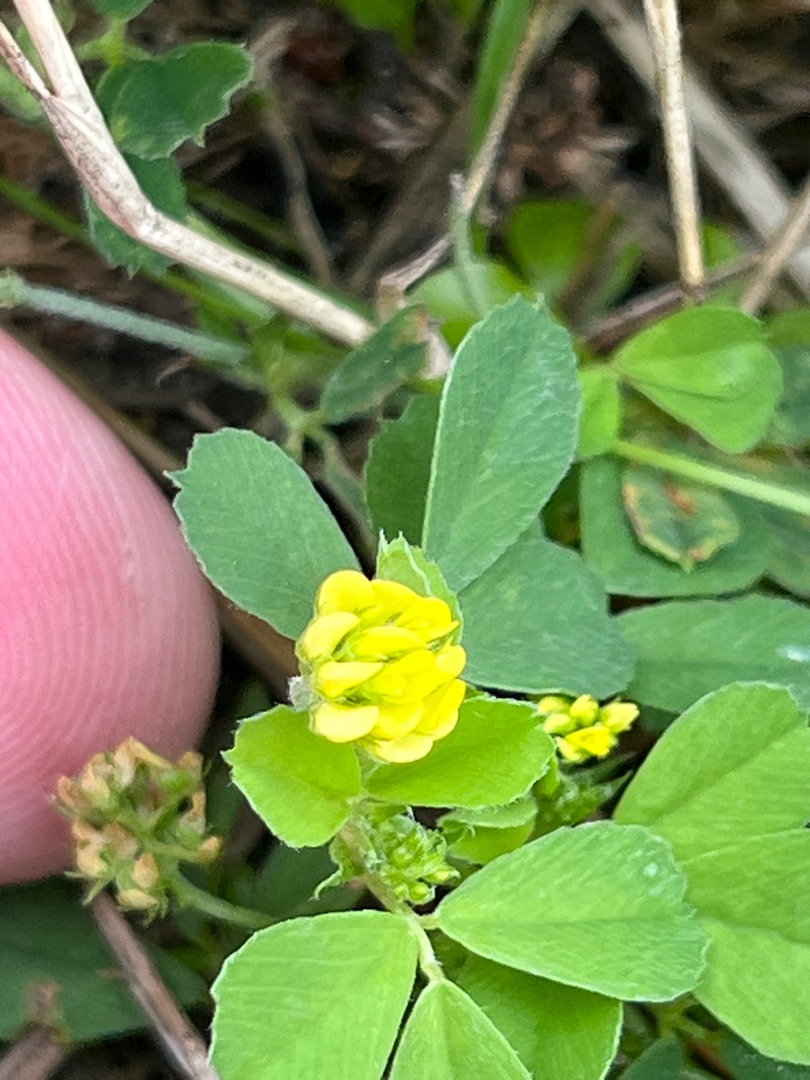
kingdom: Plantae
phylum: Tracheophyta
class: Magnoliopsida
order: Fabales
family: Fabaceae
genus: Medicago
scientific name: Medicago lupulina
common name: Humle-sneglebælg
